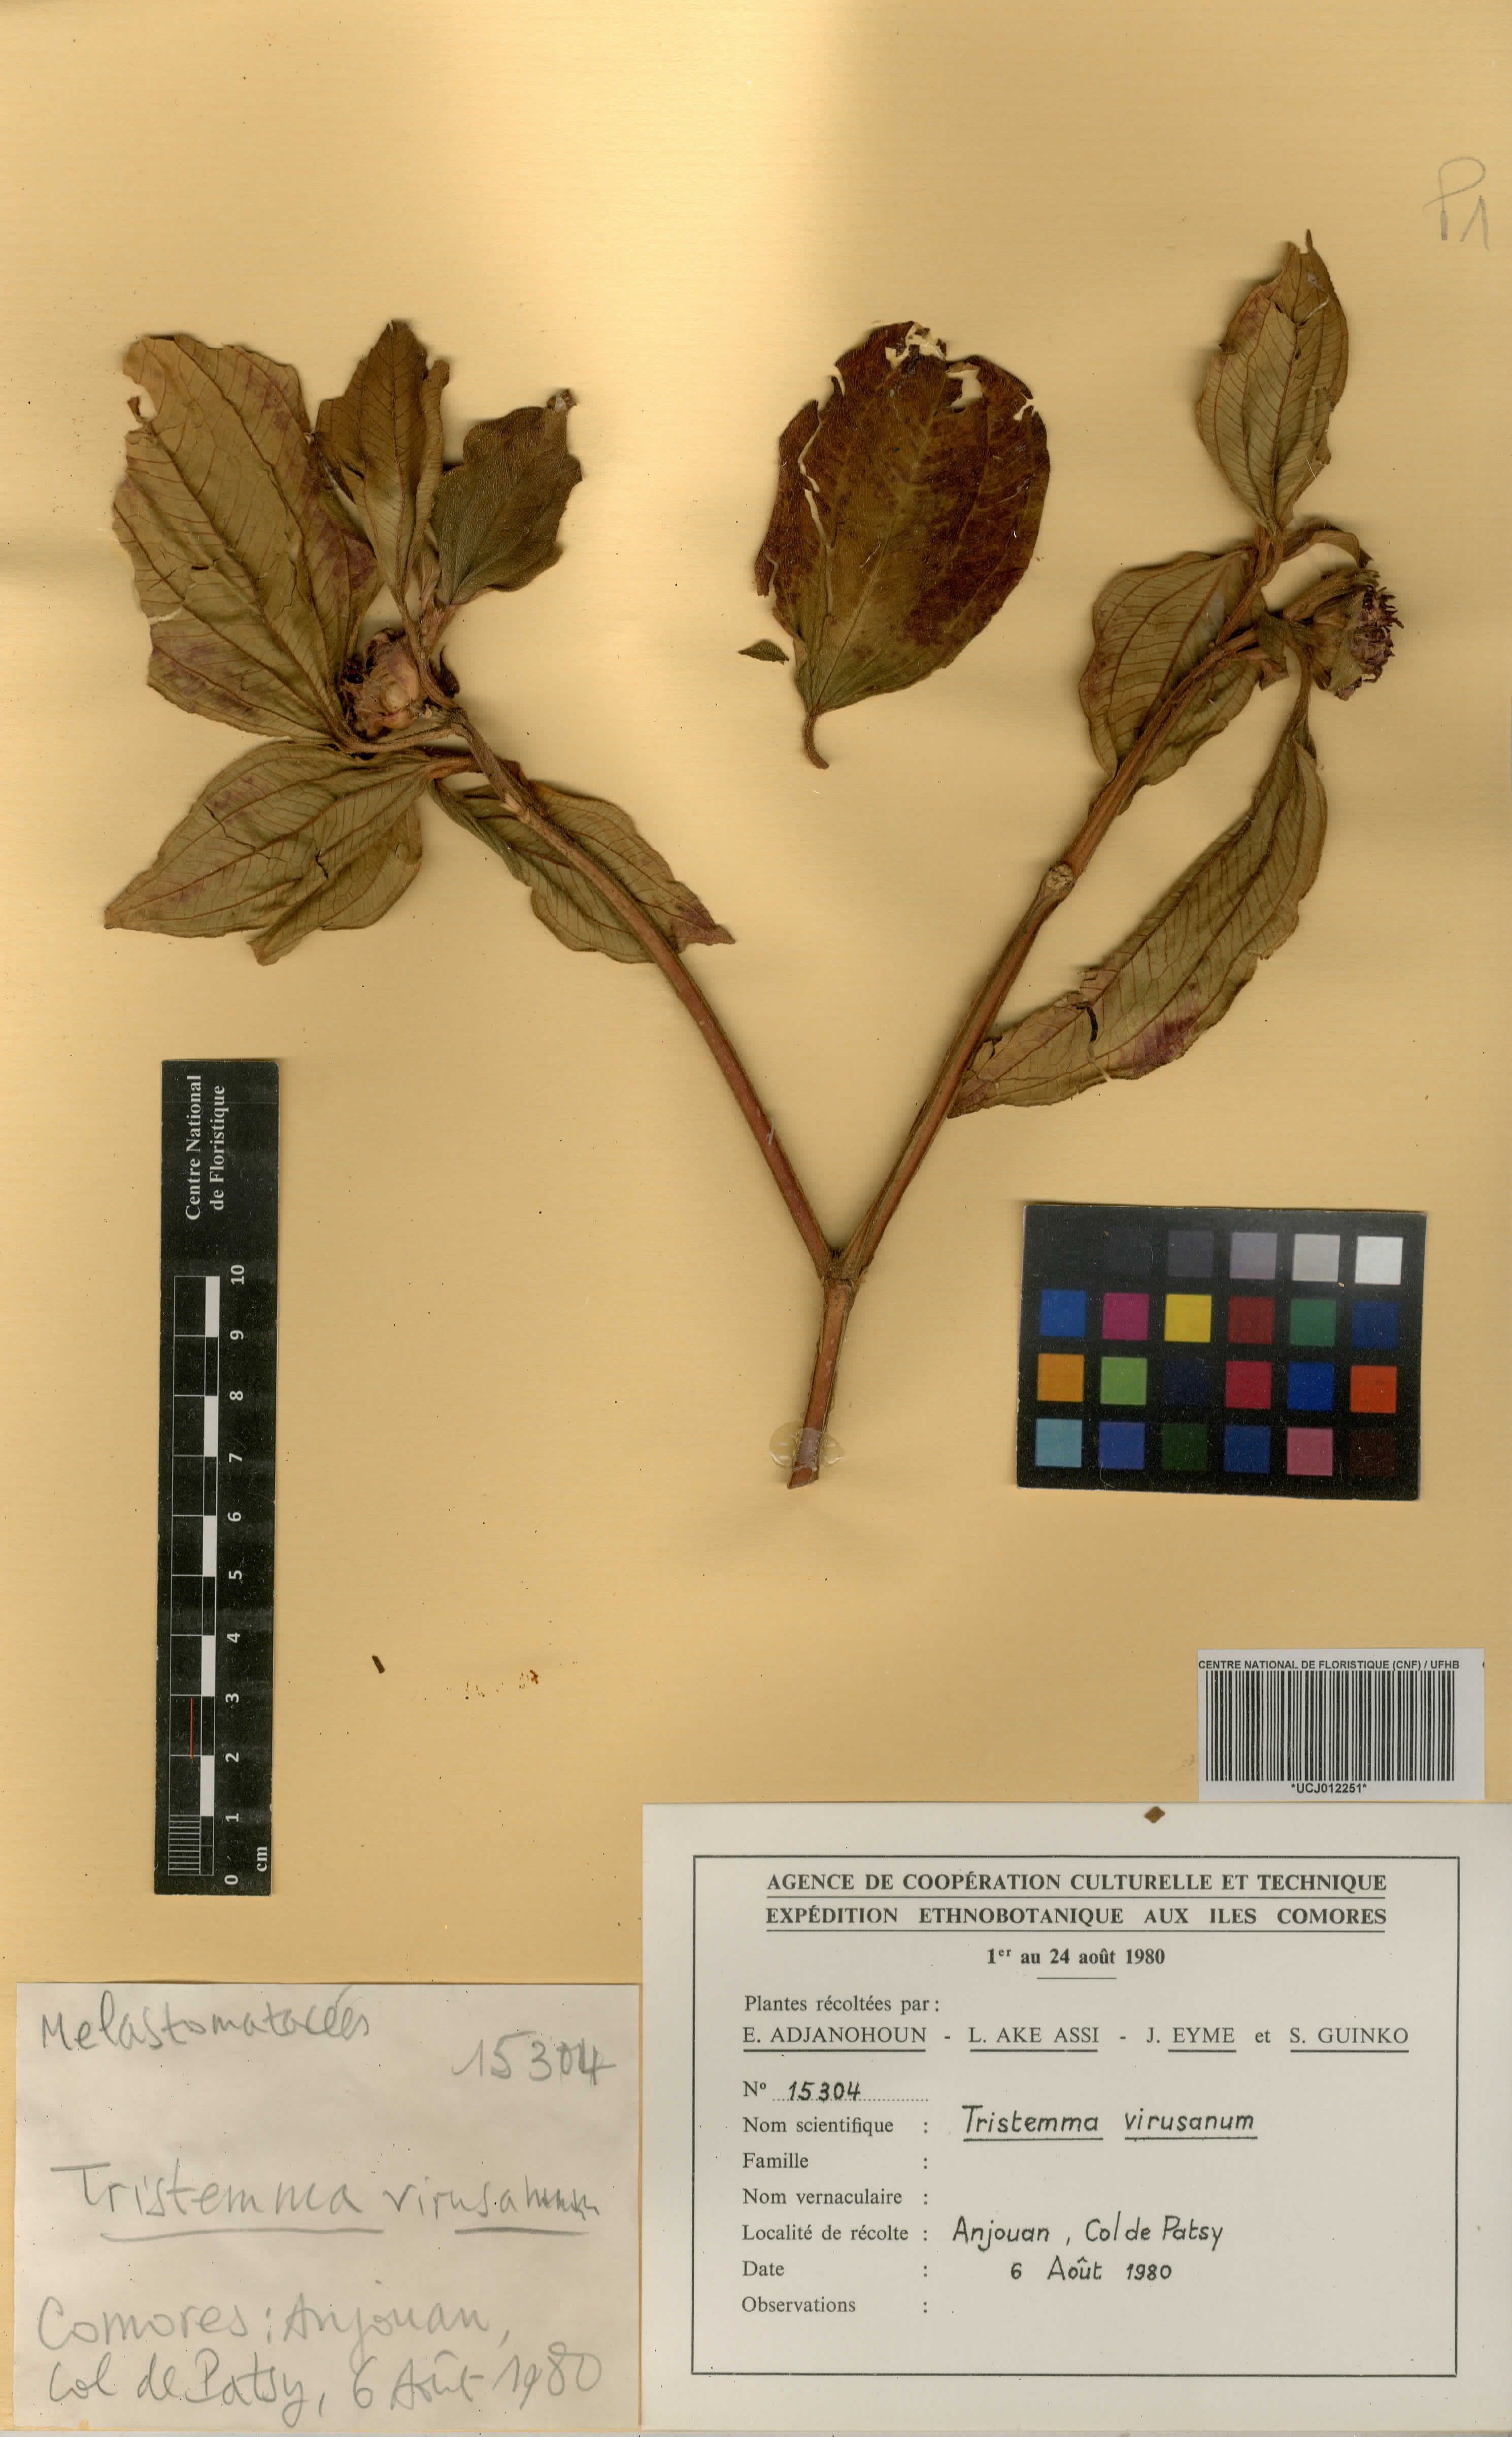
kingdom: Plantae
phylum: Tracheophyta
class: Magnoliopsida
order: Myrtales
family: Melastomataceae
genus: Tristemma
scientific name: Tristemma mauritianum
